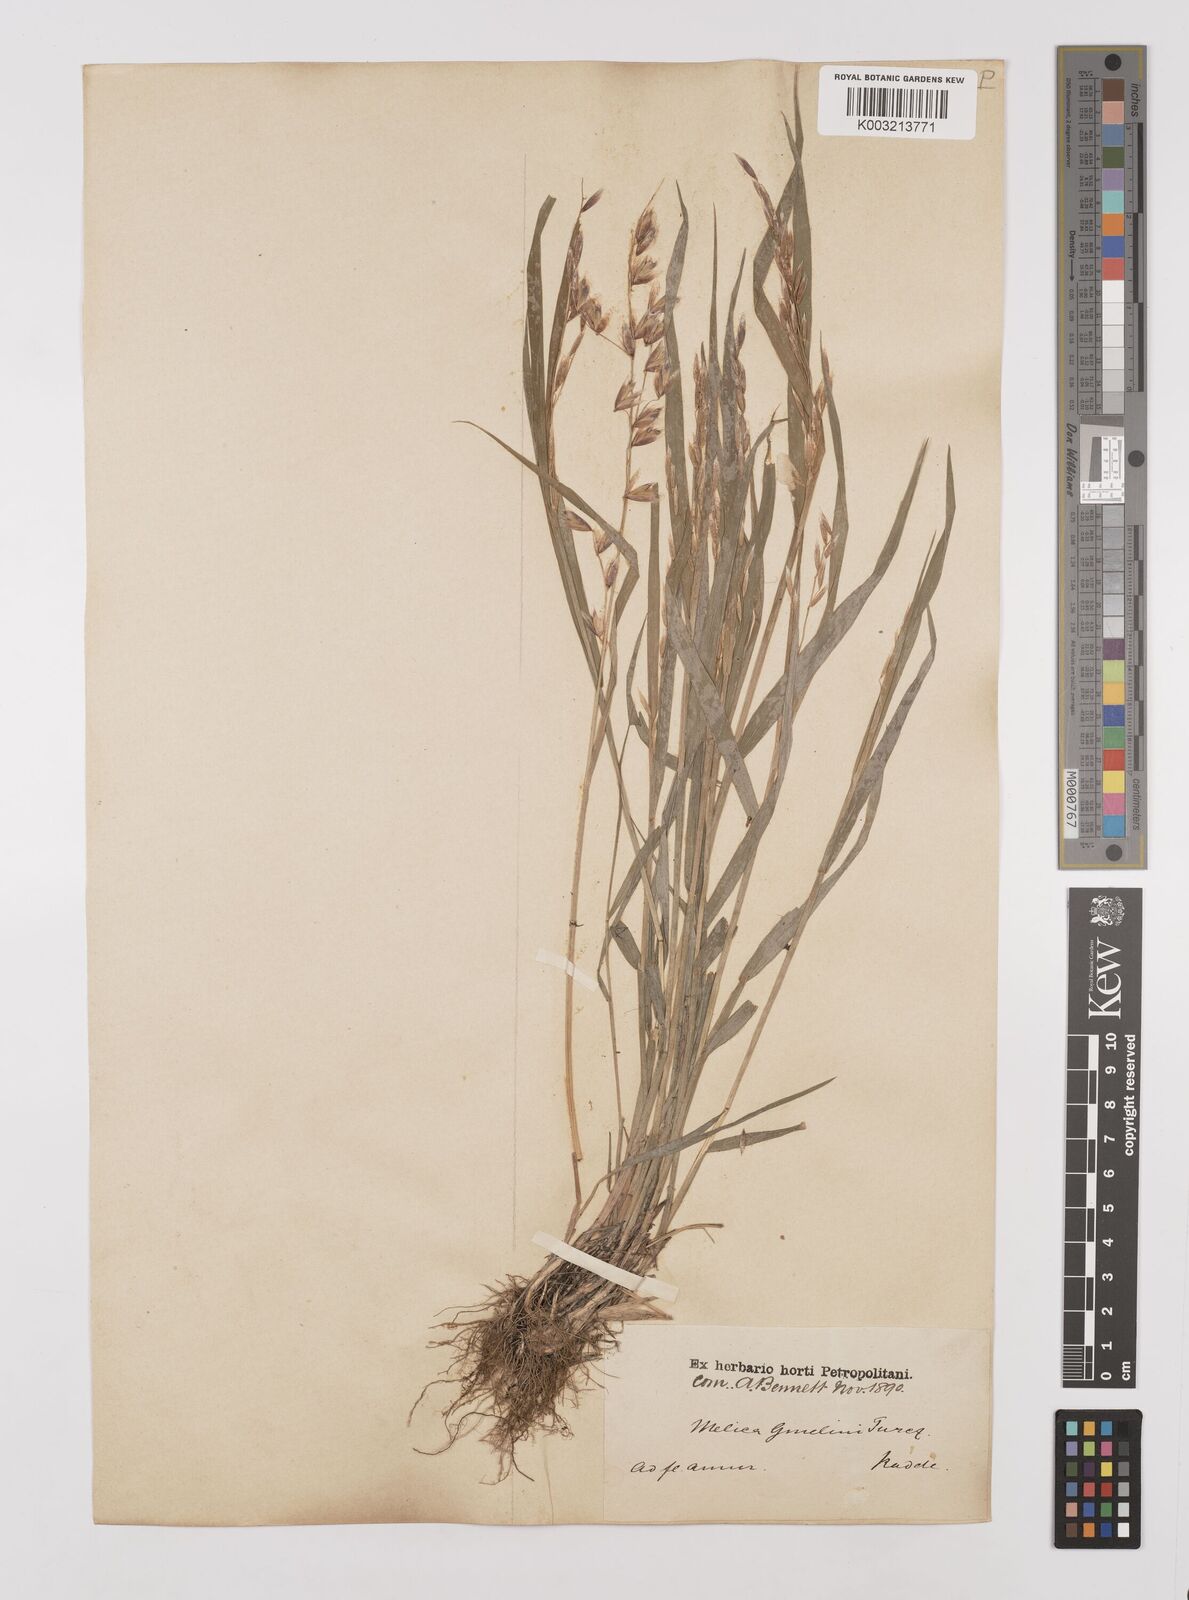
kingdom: Plantae
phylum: Tracheophyta
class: Liliopsida
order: Poales
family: Poaceae
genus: Melica
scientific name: Melica turczaninowiana
